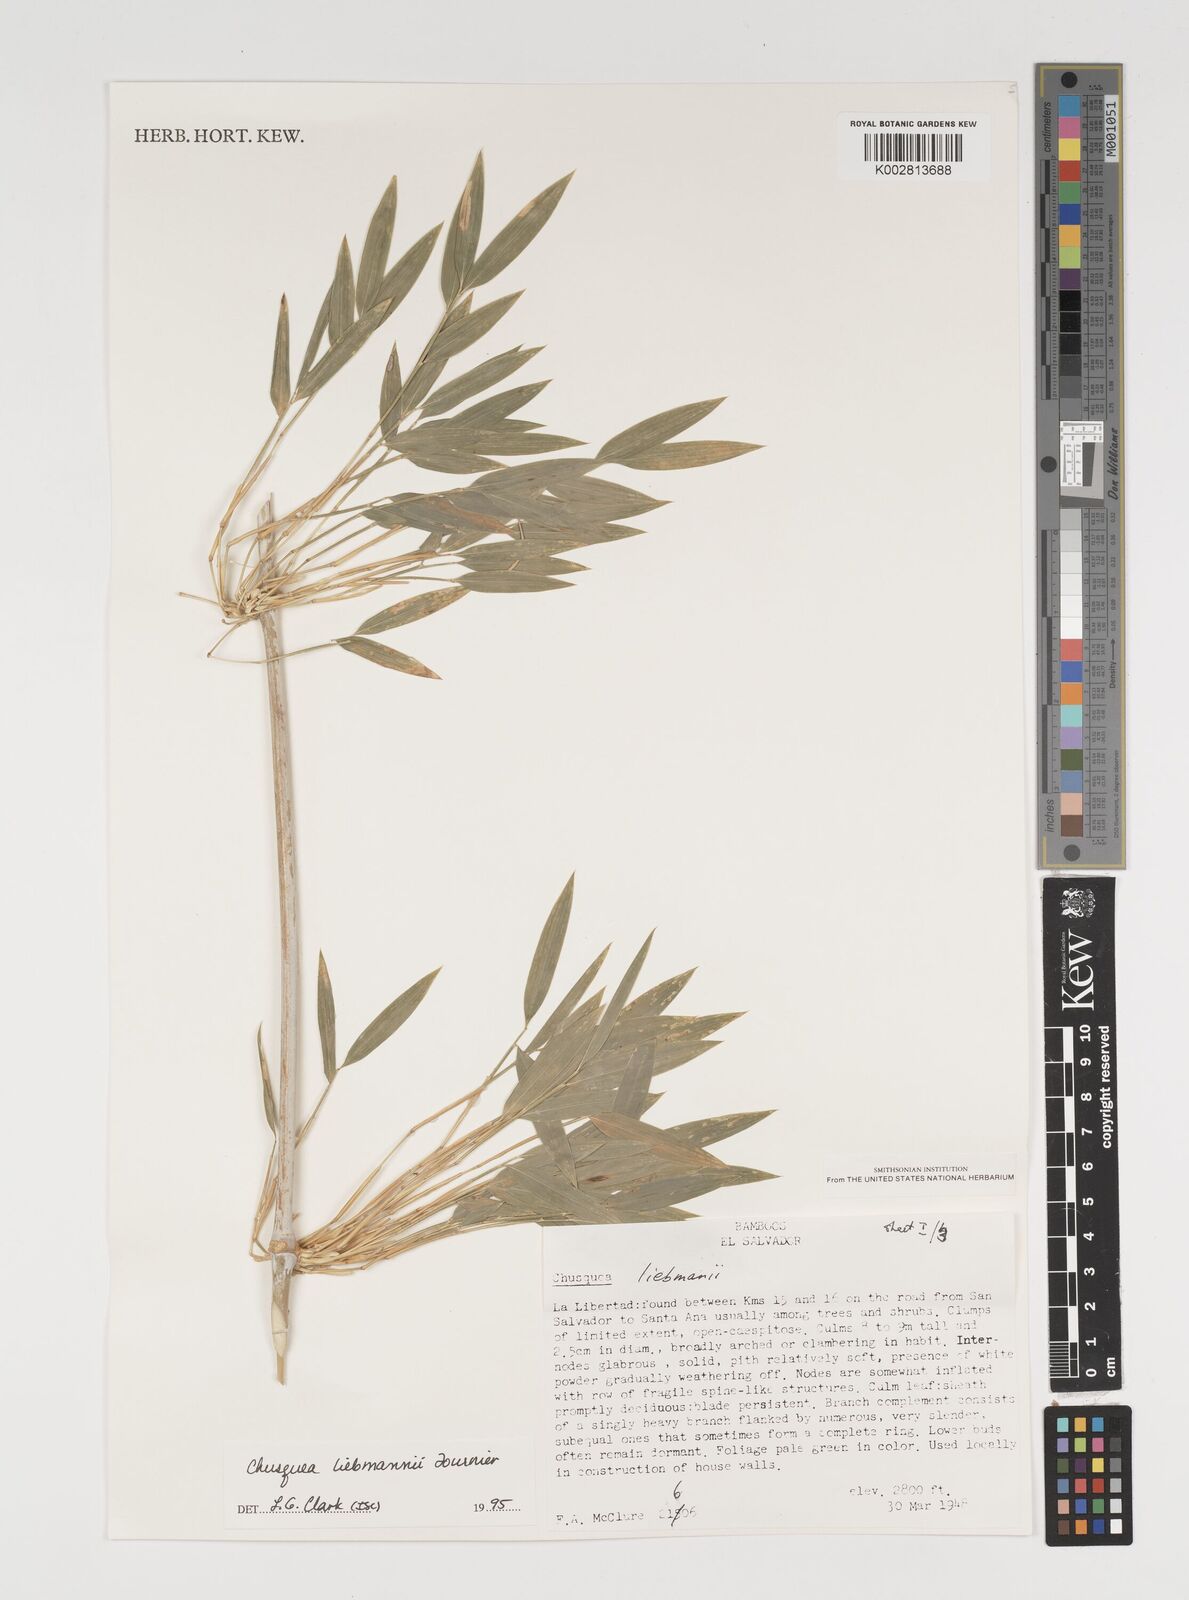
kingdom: Plantae
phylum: Tracheophyta
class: Liliopsida
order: Poales
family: Poaceae
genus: Chusquea
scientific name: Chusquea liebmannii
